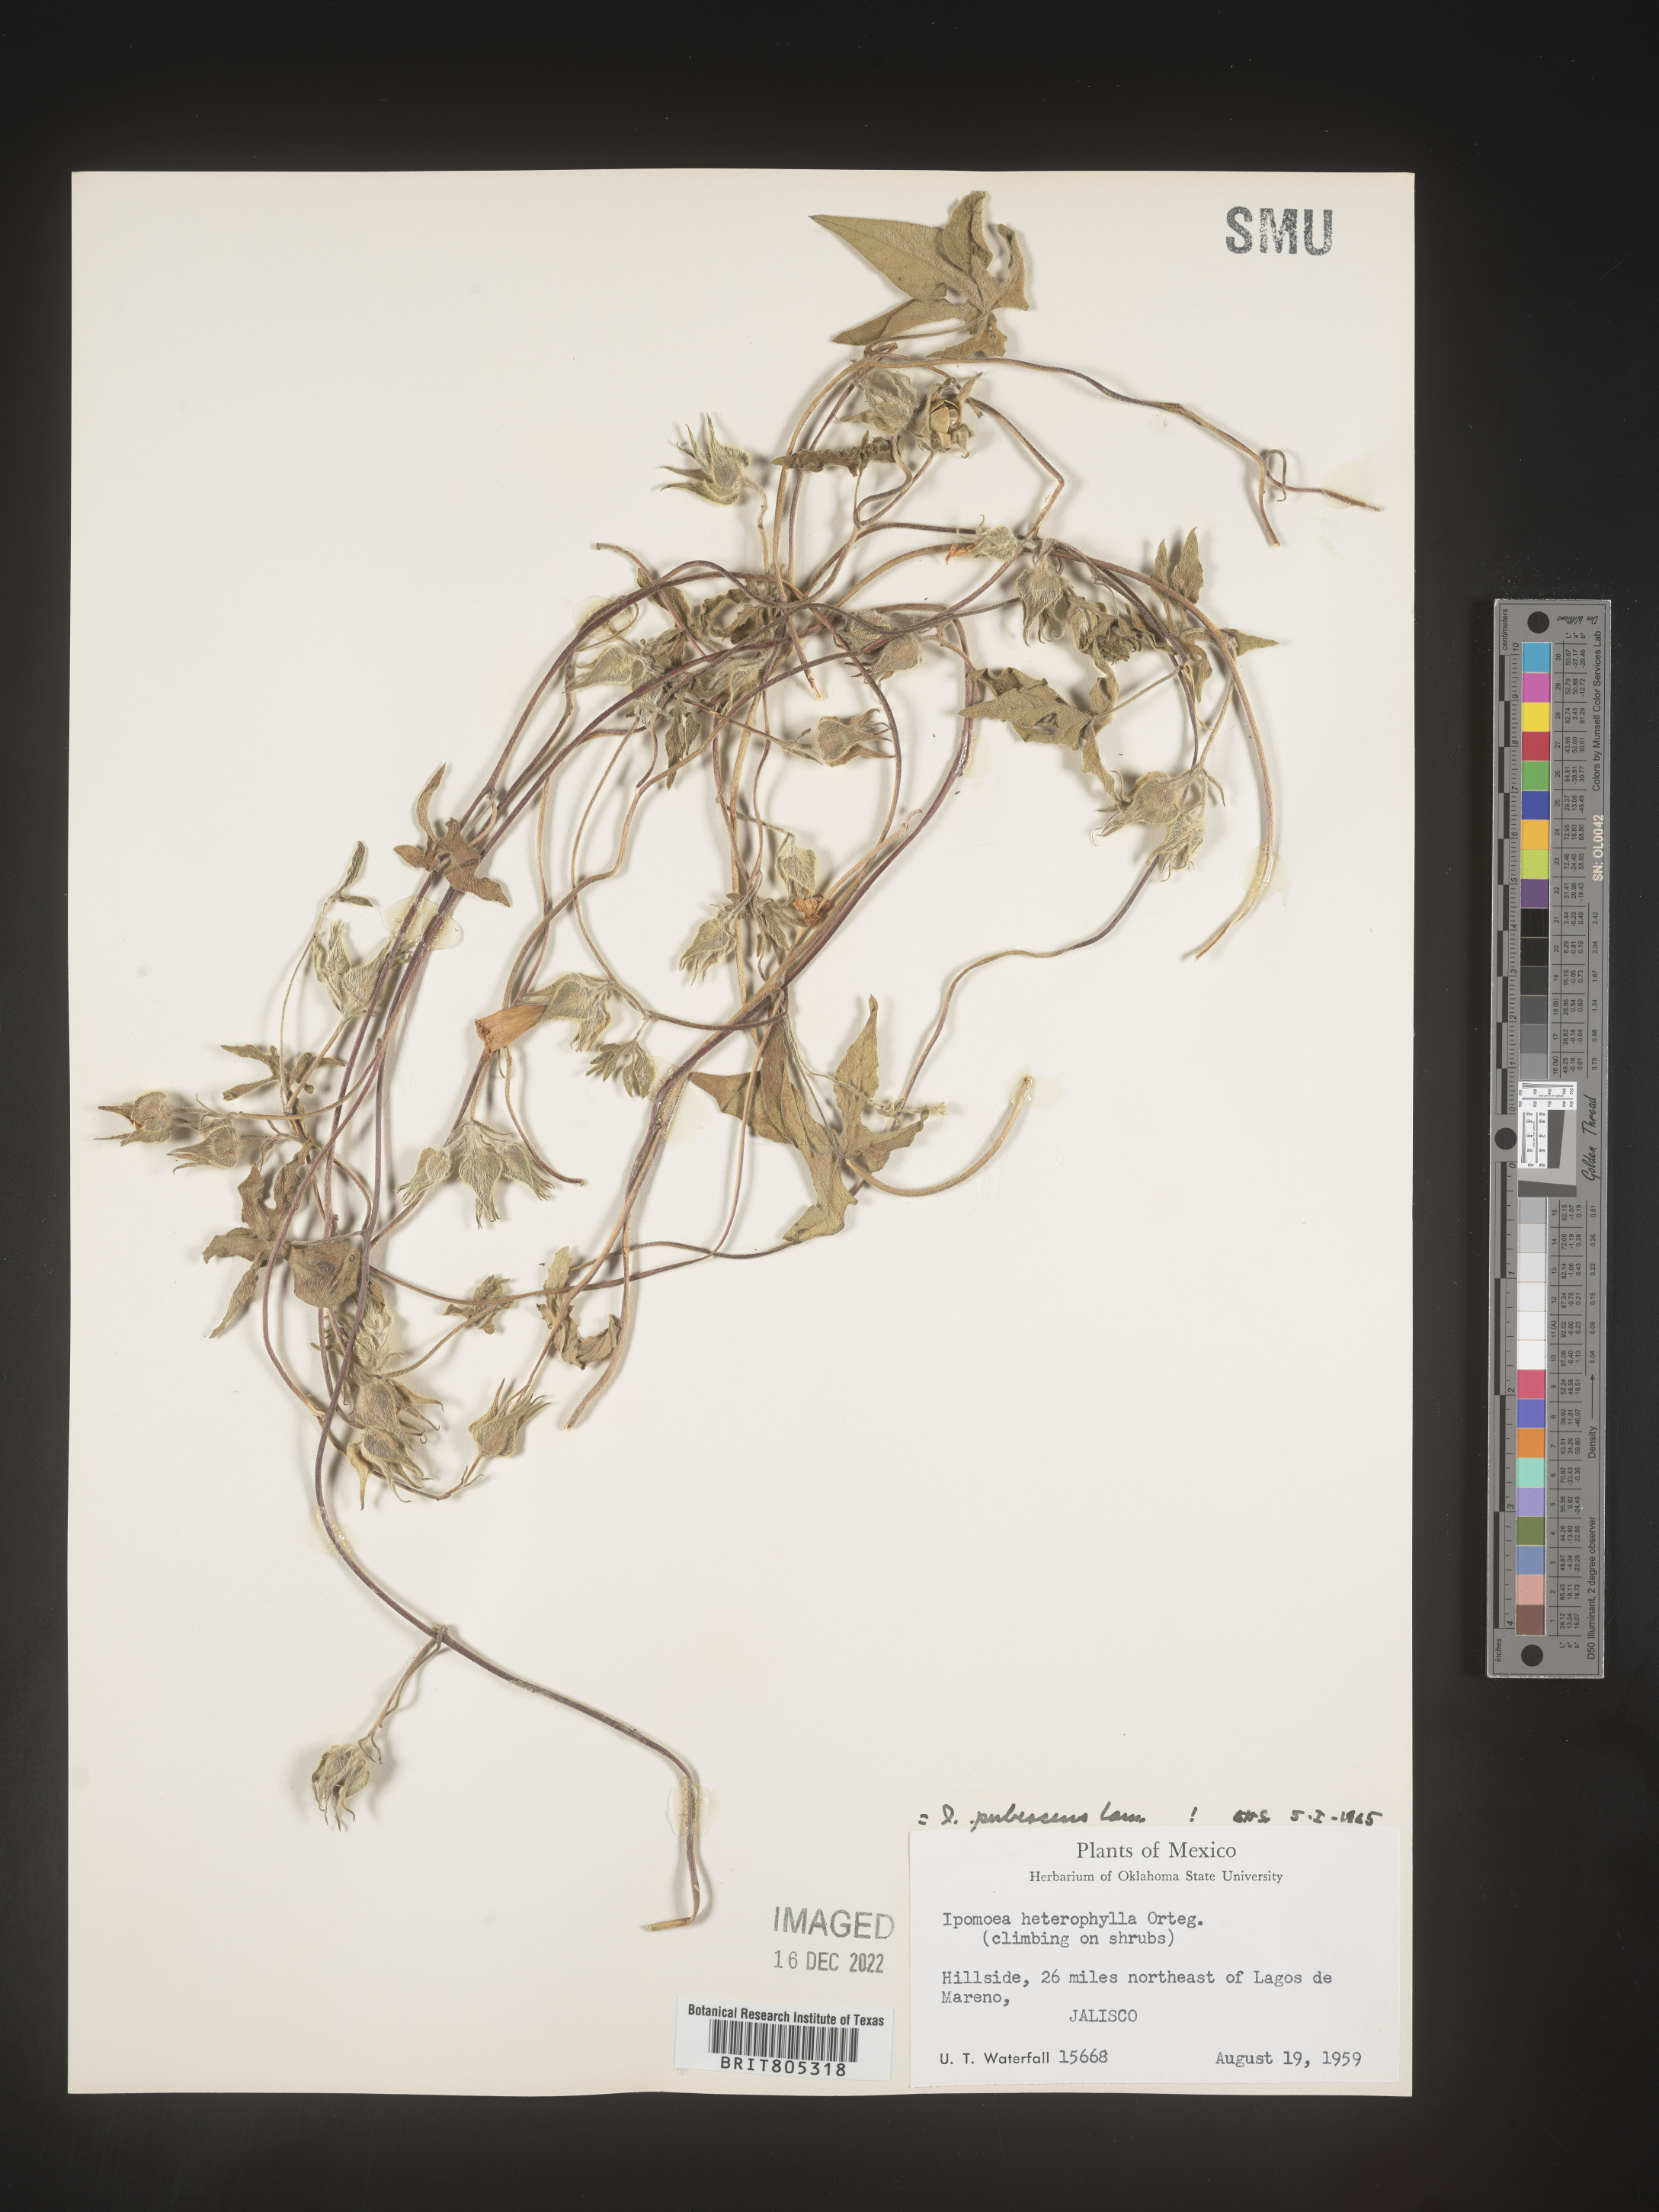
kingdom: Plantae
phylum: Tracheophyta
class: Magnoliopsida
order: Solanales
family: Convolvulaceae
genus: Ipomoea
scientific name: Ipomoea
